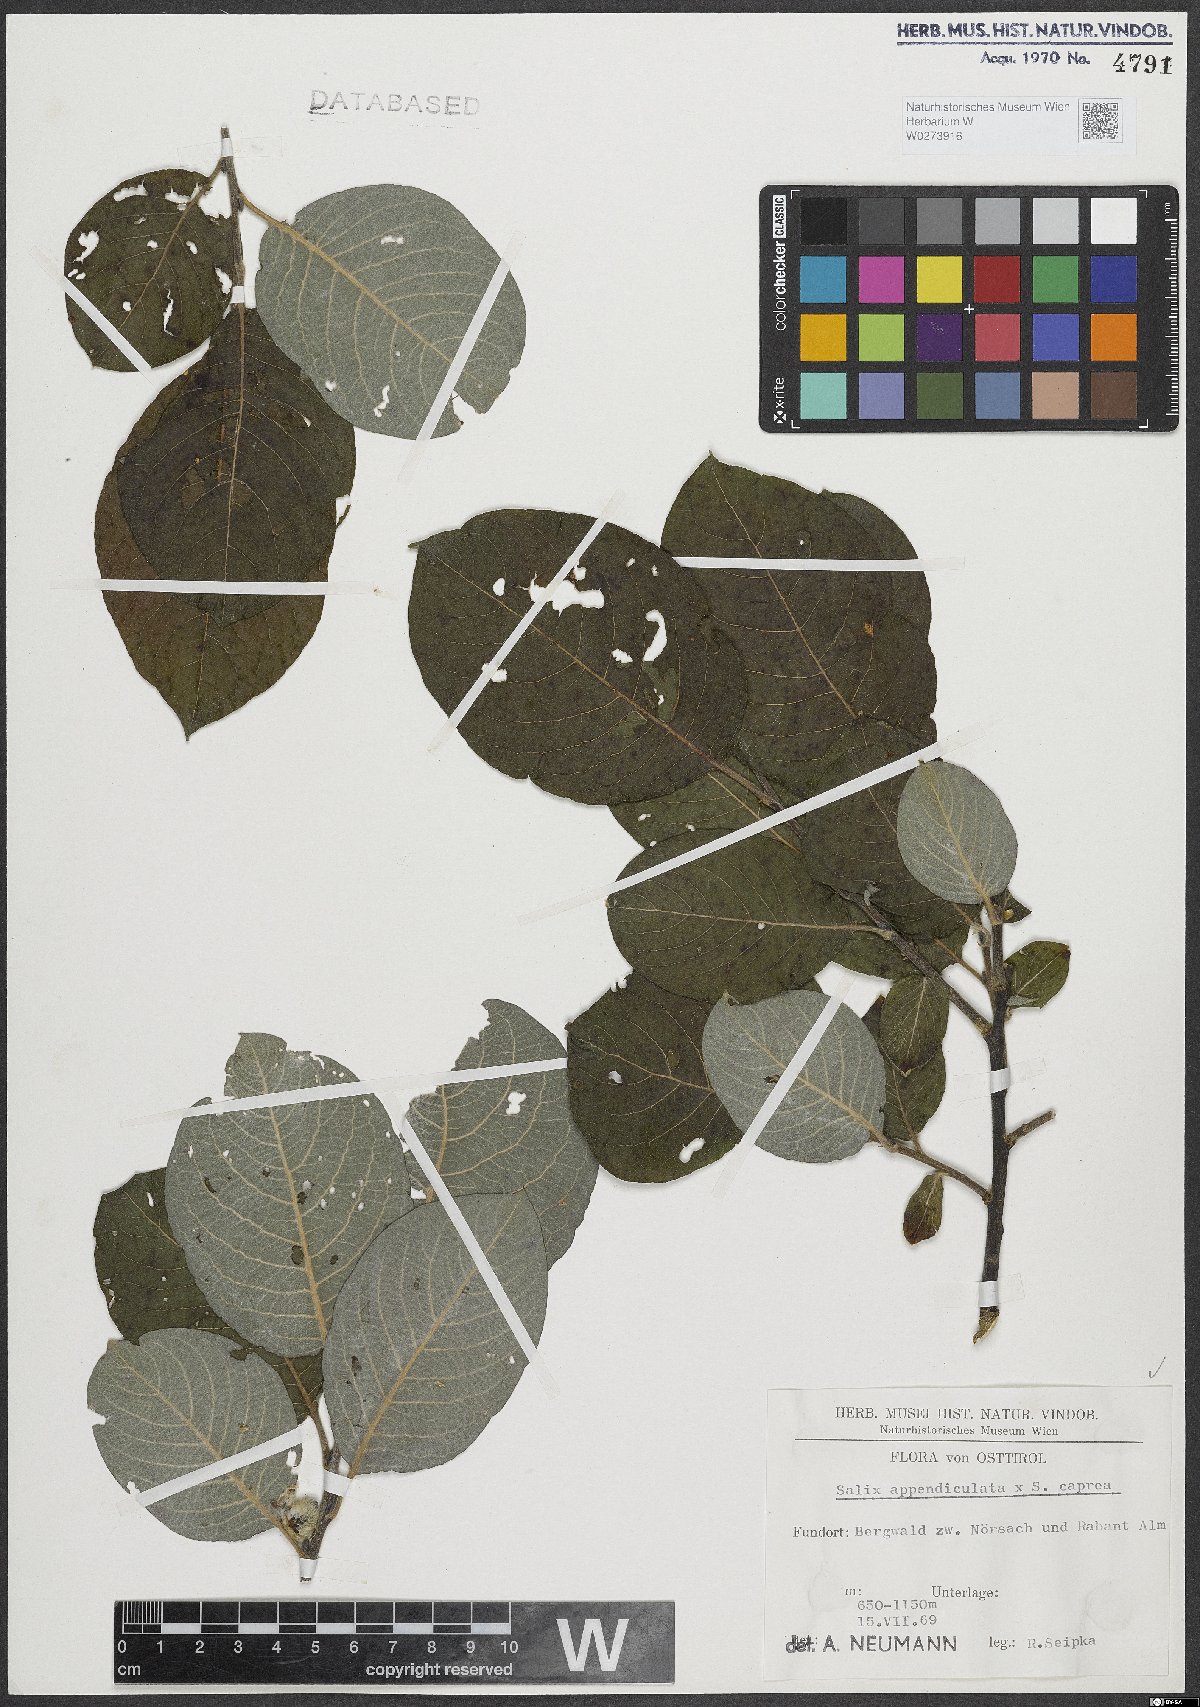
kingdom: Plantae
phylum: Tracheophyta
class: Magnoliopsida
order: Malpighiales
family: Salicaceae
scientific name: Salicaceae
